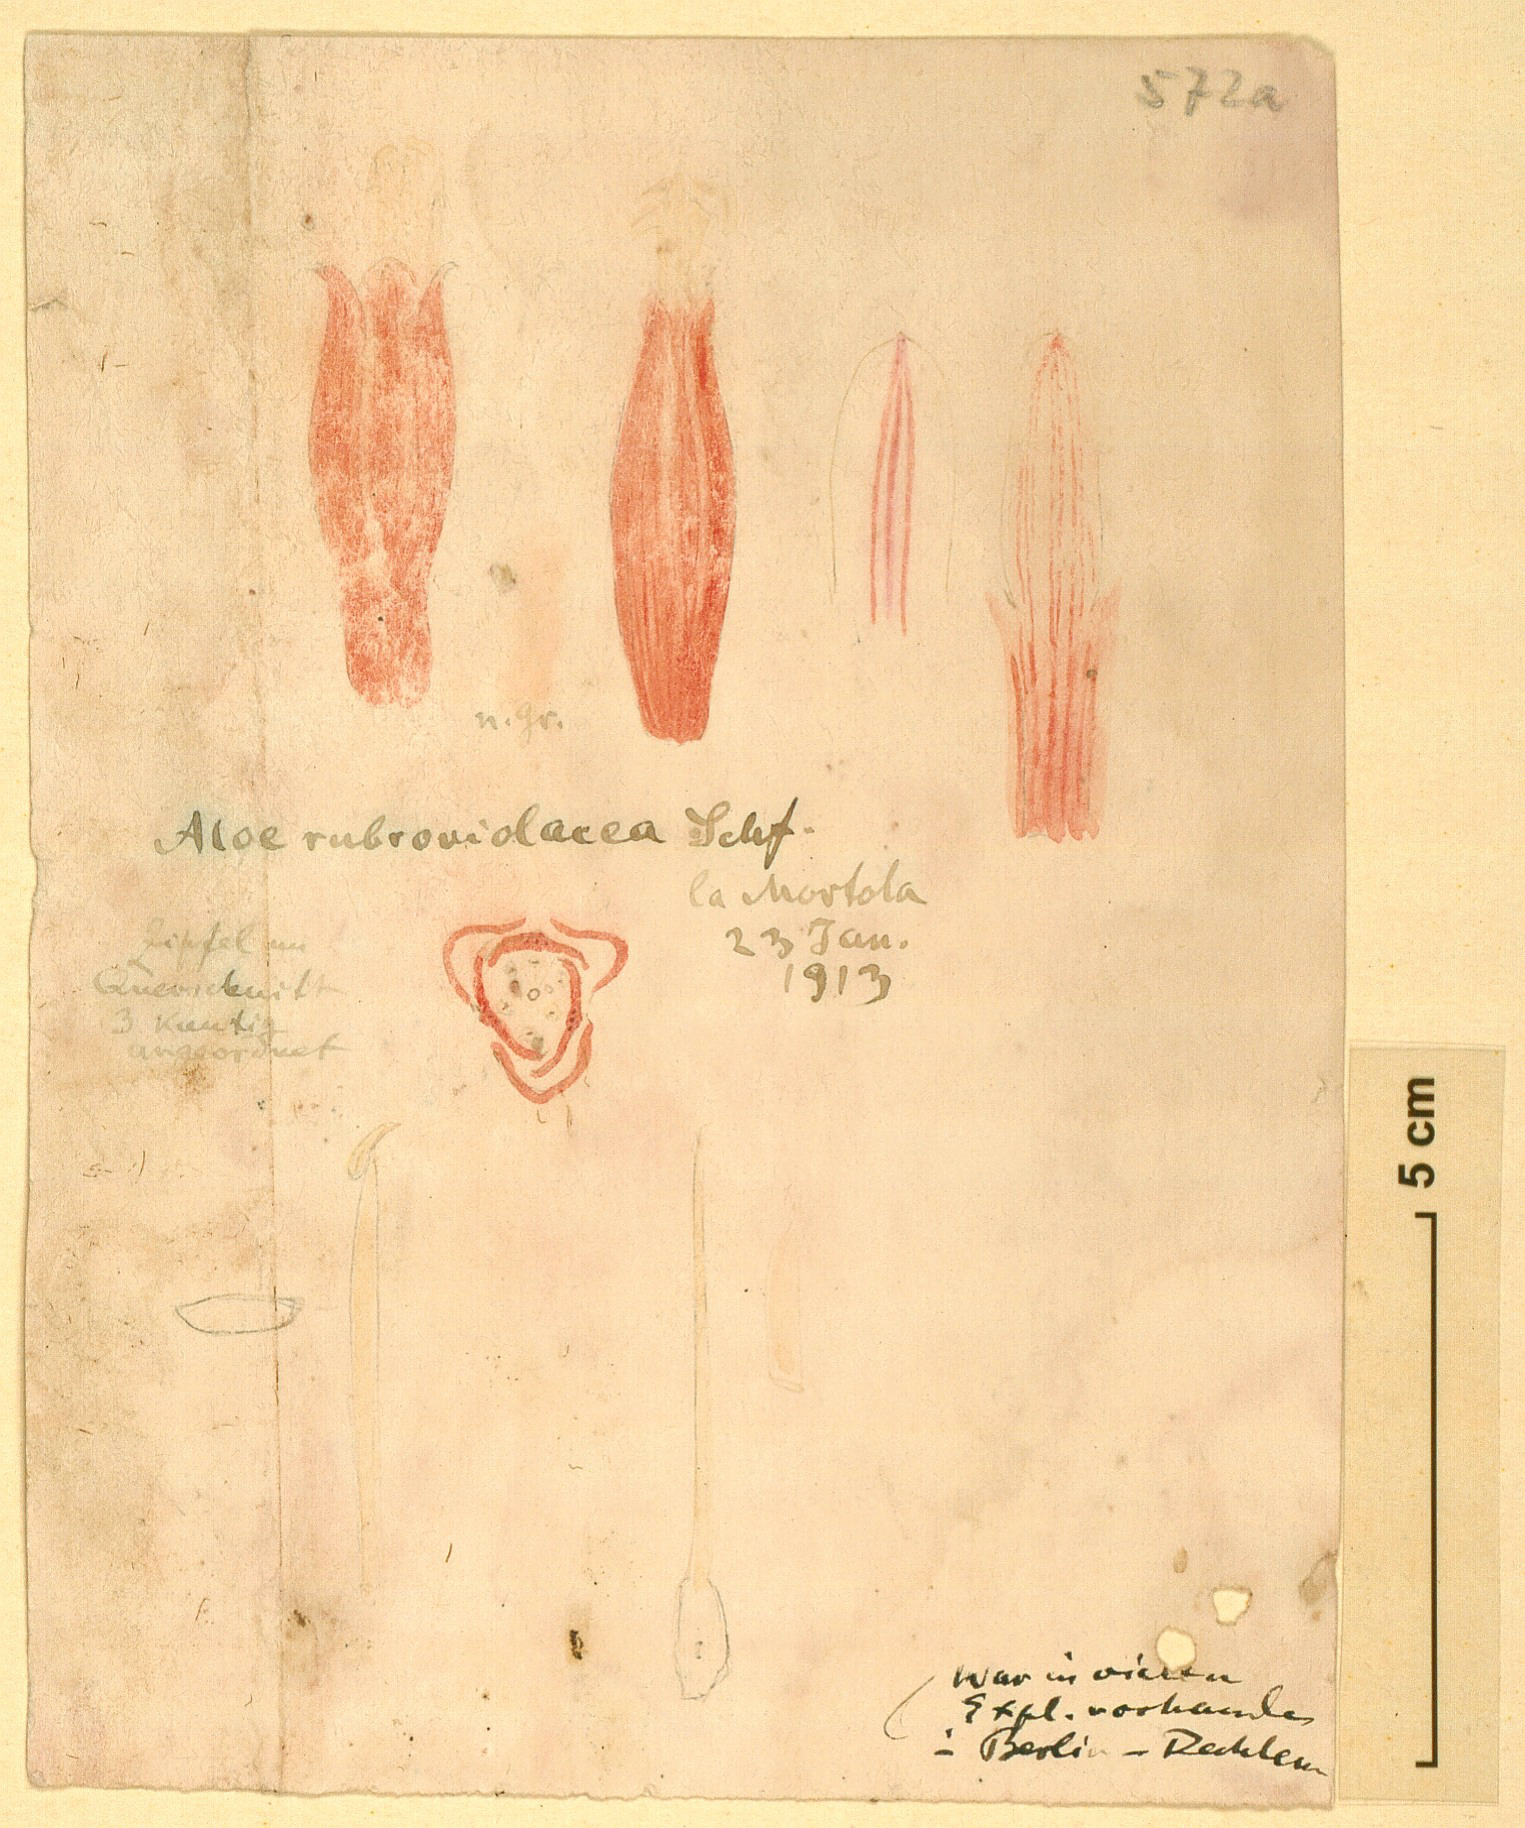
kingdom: Plantae
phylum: Tracheophyta
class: Liliopsida
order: Asparagales
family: Asphodelaceae
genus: Aloe
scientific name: Aloe rubroviolacea
